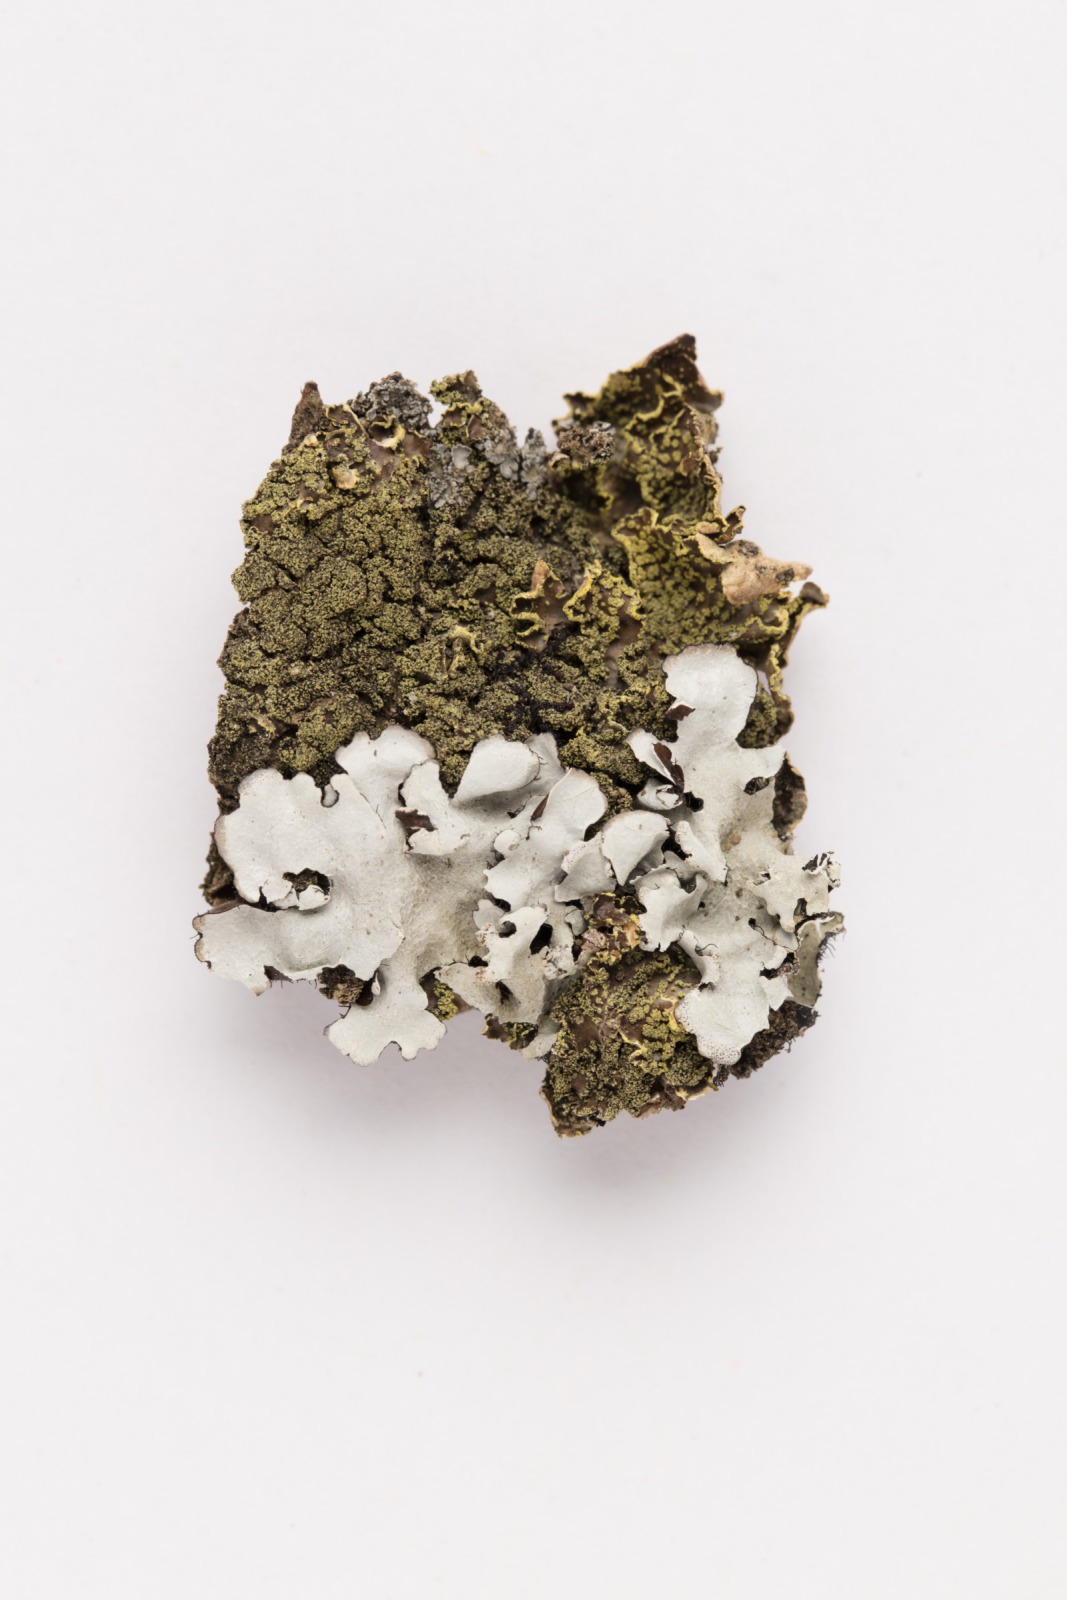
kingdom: Fungi
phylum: Ascomycota
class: Lecanoromycetes
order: Peltigerales
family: Lobariaceae
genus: Pseudocyphellaria
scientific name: Pseudocyphellaria crocata
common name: Golden specklebelly
